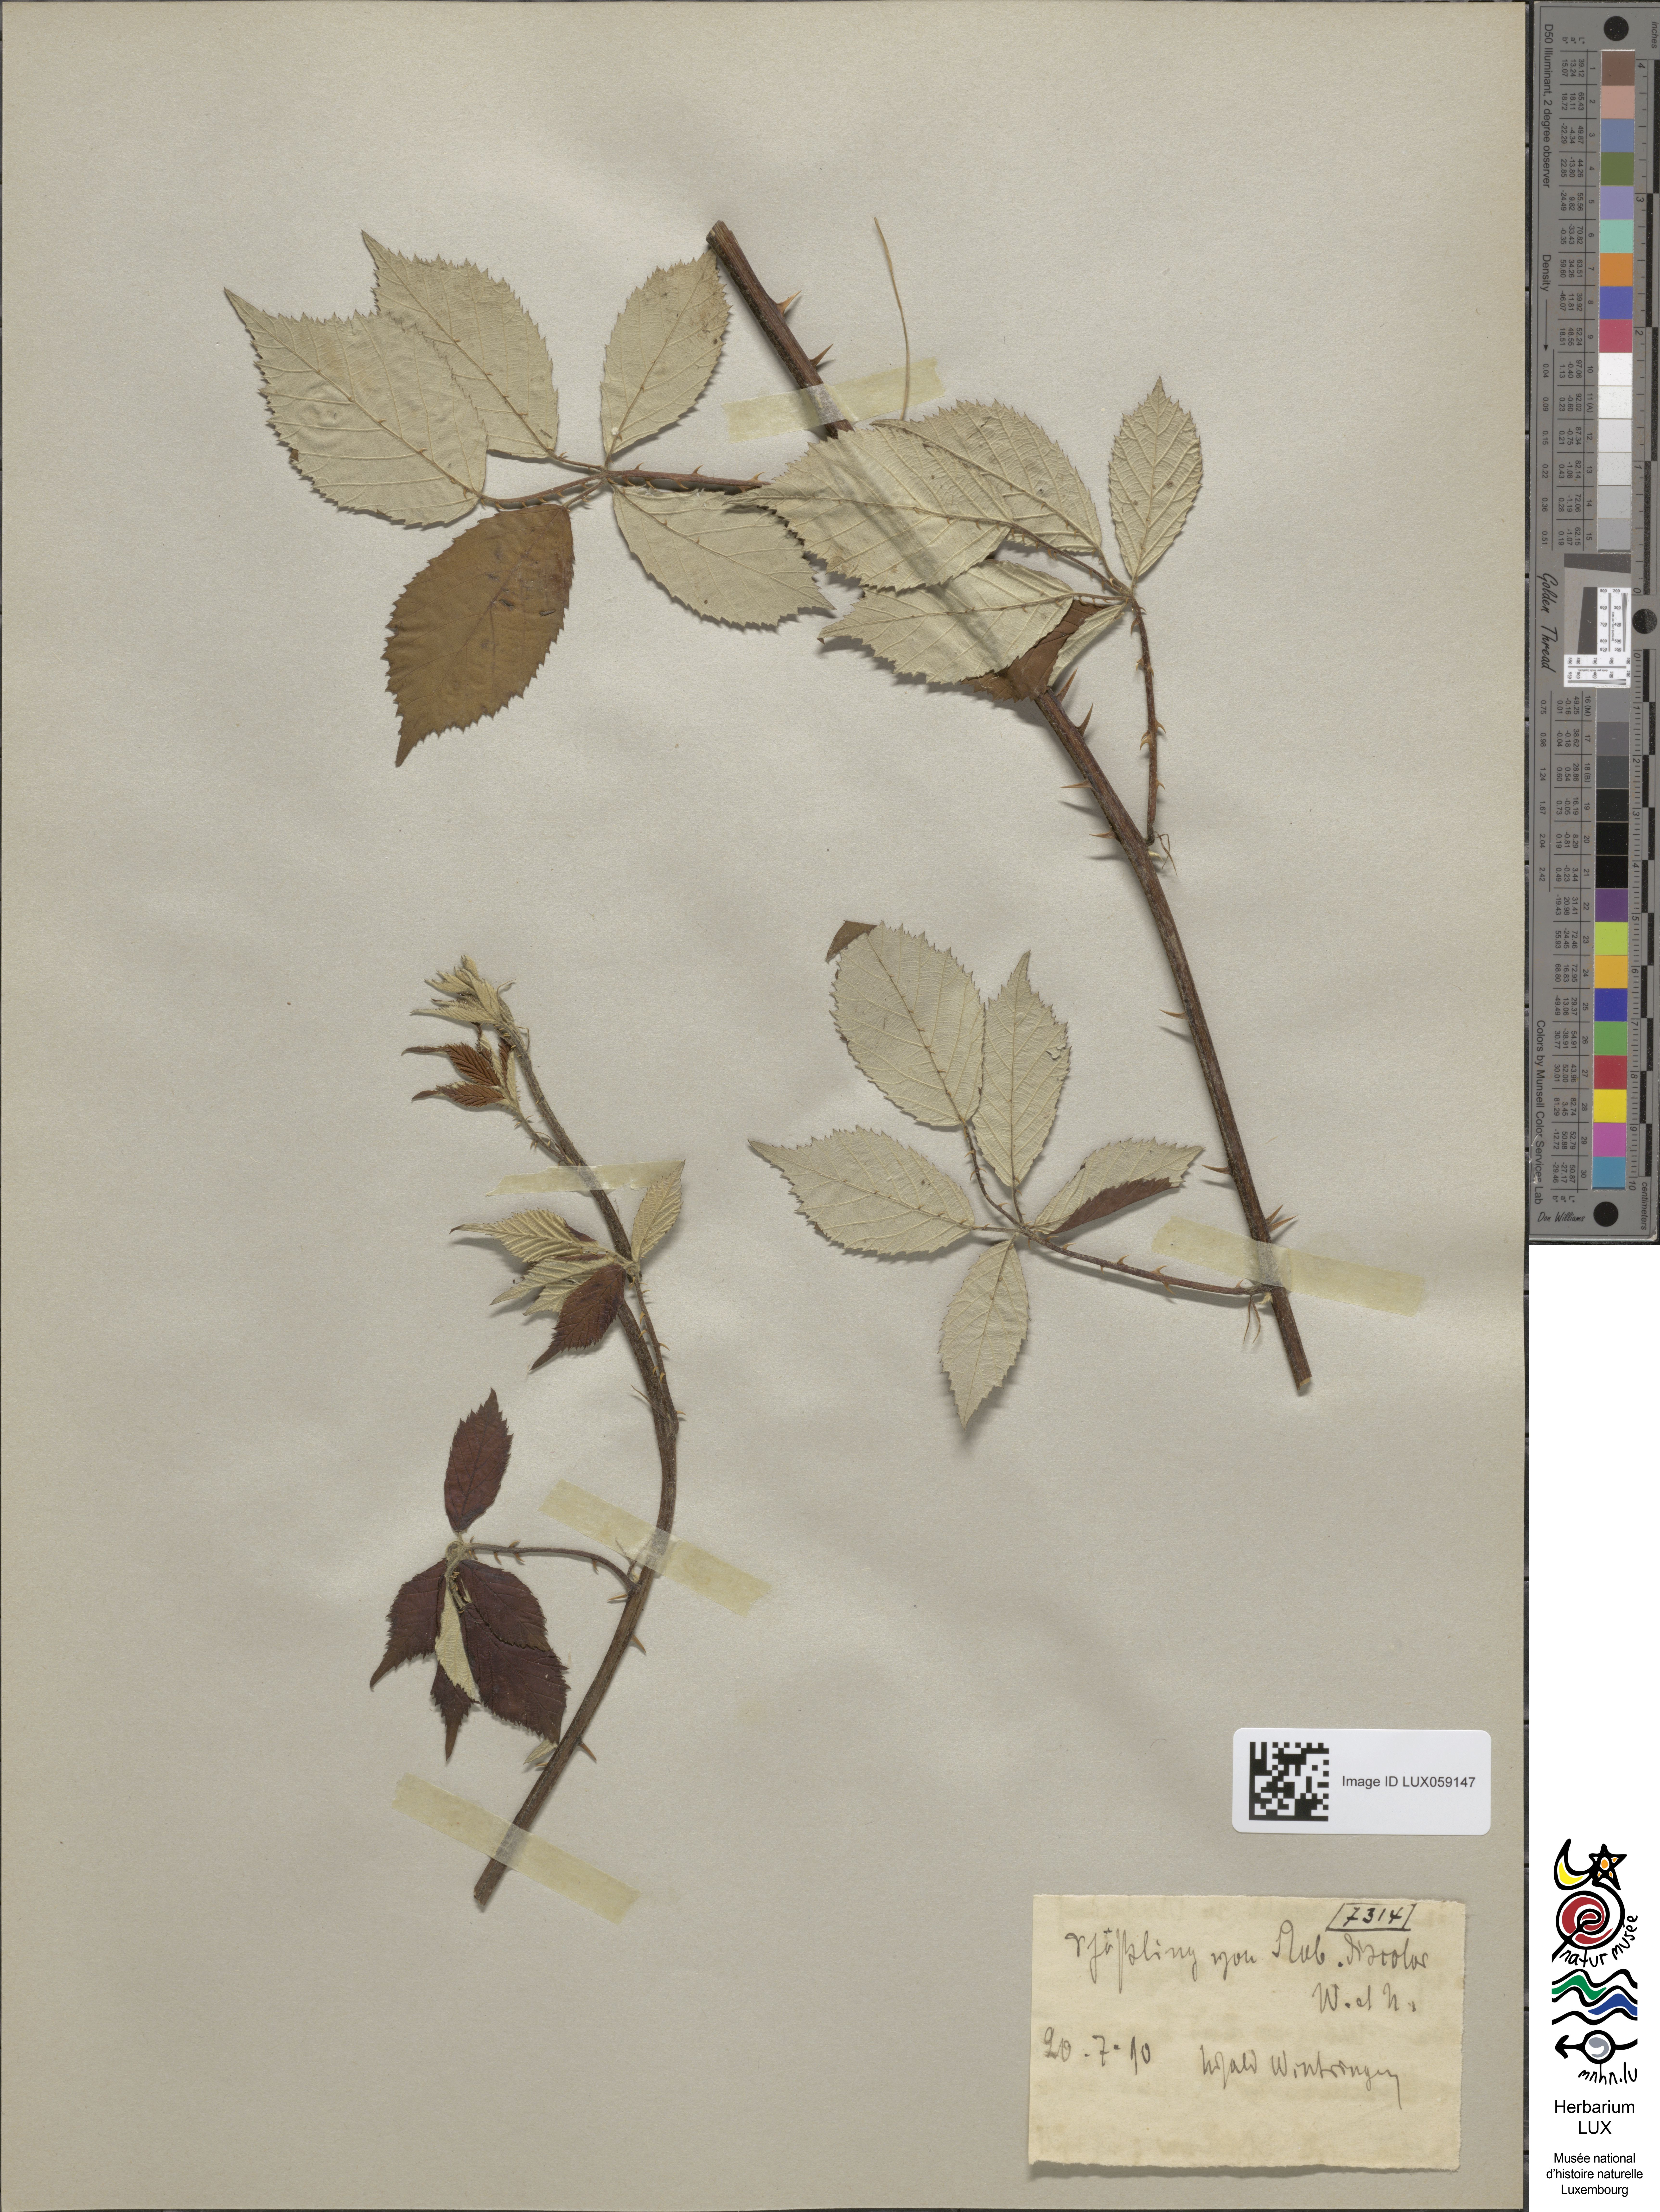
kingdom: Plantae
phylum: Tracheophyta
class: Magnoliopsida
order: Rosales
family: Rosaceae
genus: Rubus
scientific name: Rubus ulmifolius
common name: Elmleaf blackberry
